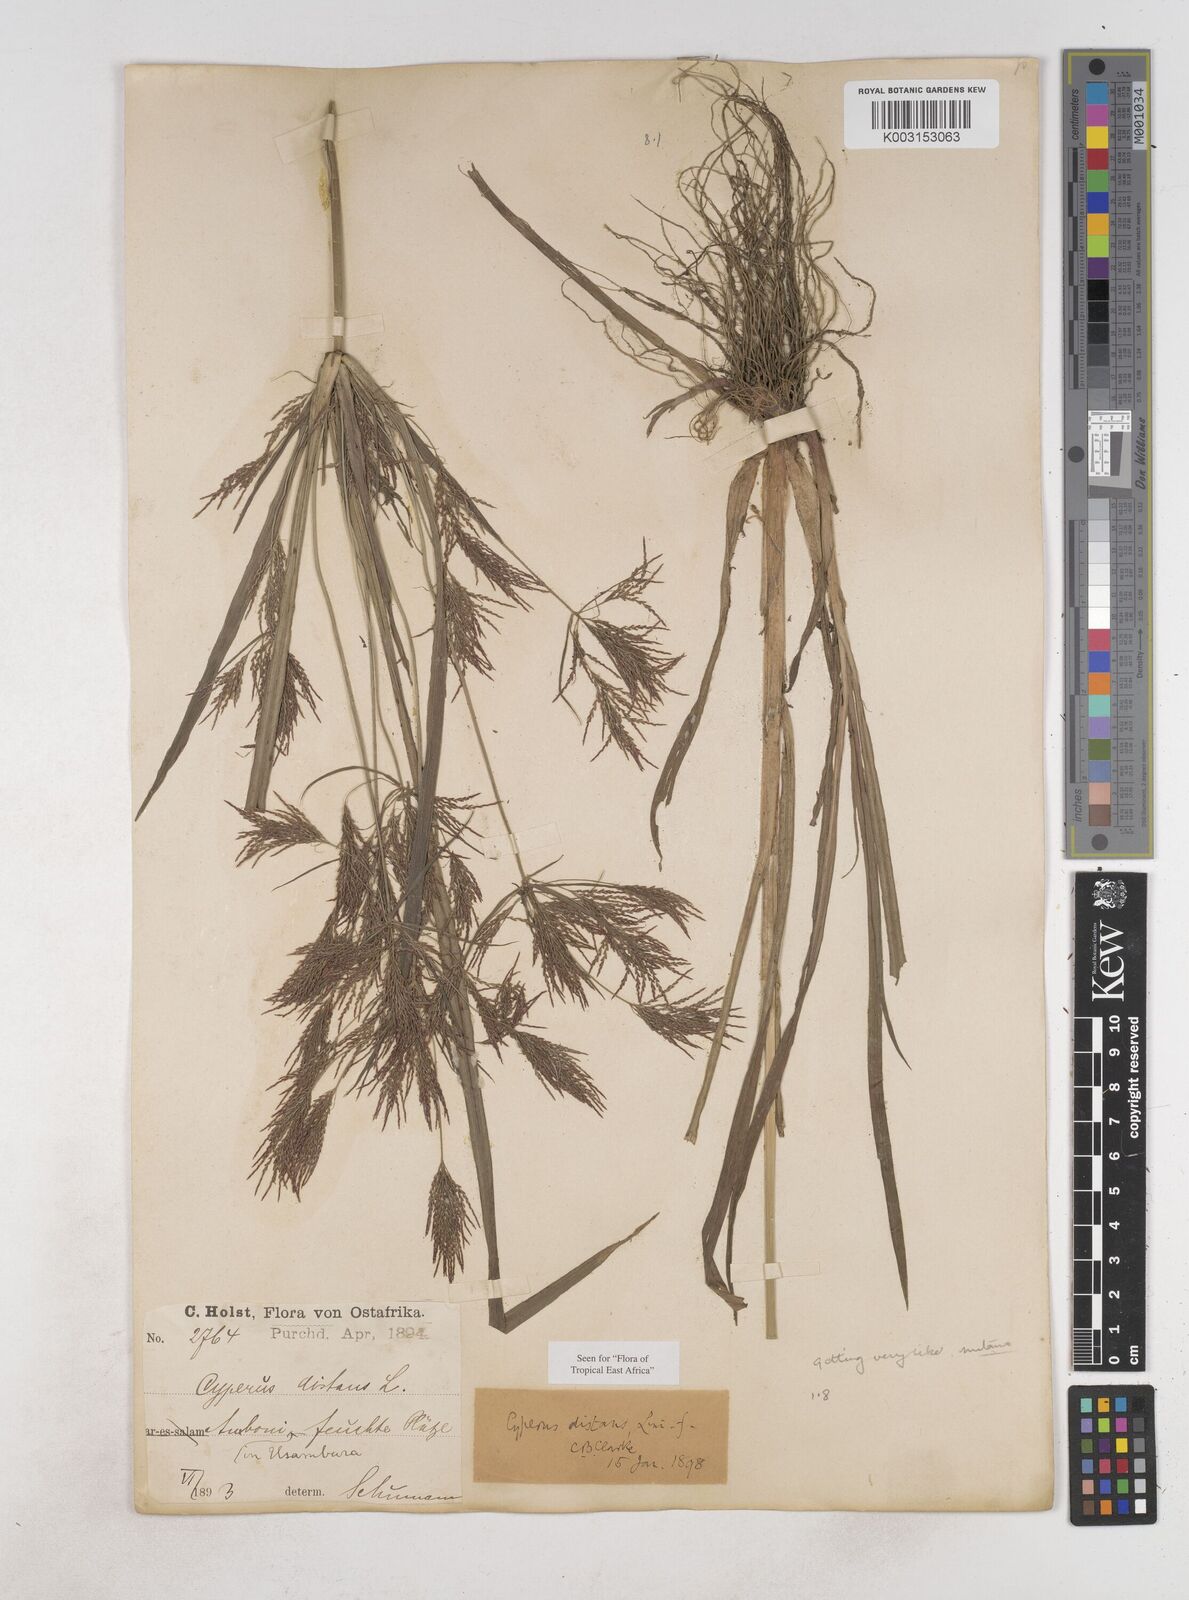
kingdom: Plantae
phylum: Tracheophyta
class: Liliopsida
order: Poales
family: Cyperaceae
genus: Cyperus
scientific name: Cyperus distans
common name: Slender cyperus
